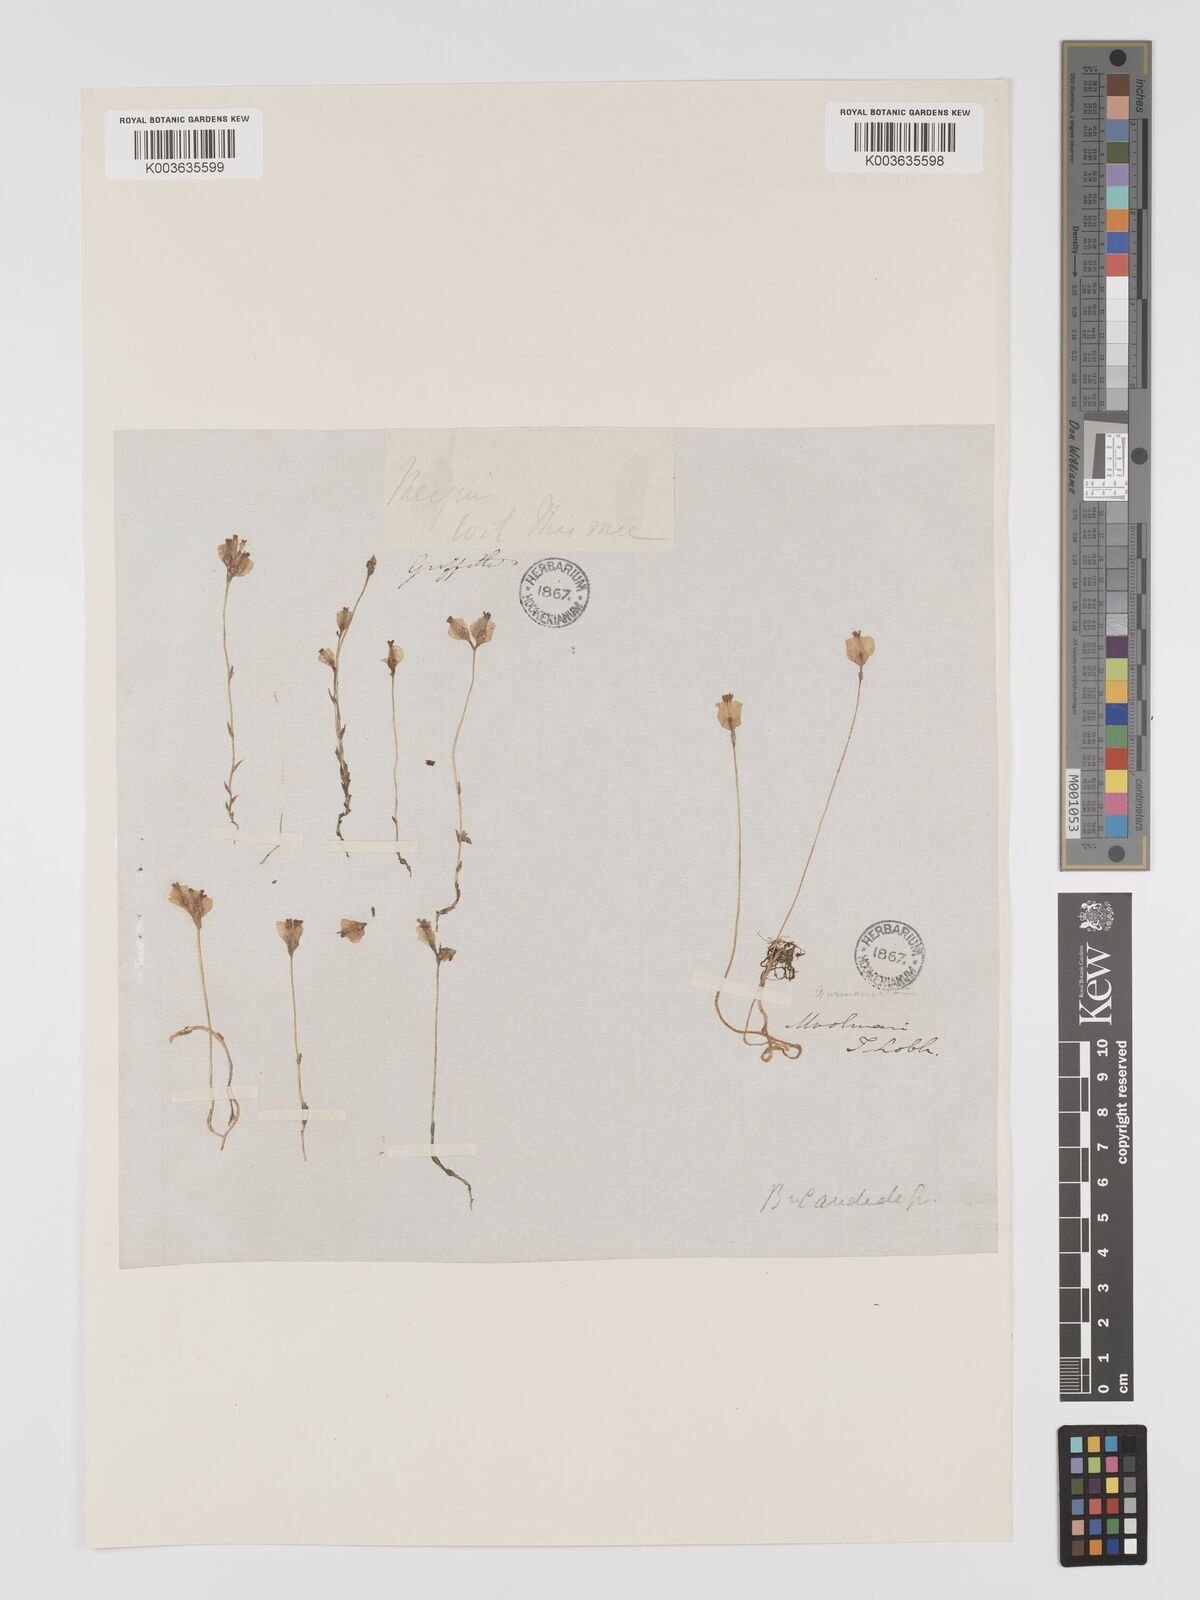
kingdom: Plantae
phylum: Tracheophyta
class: Liliopsida
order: Dioscoreales
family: Burmanniaceae
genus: Burmannia
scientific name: Burmannia candida
